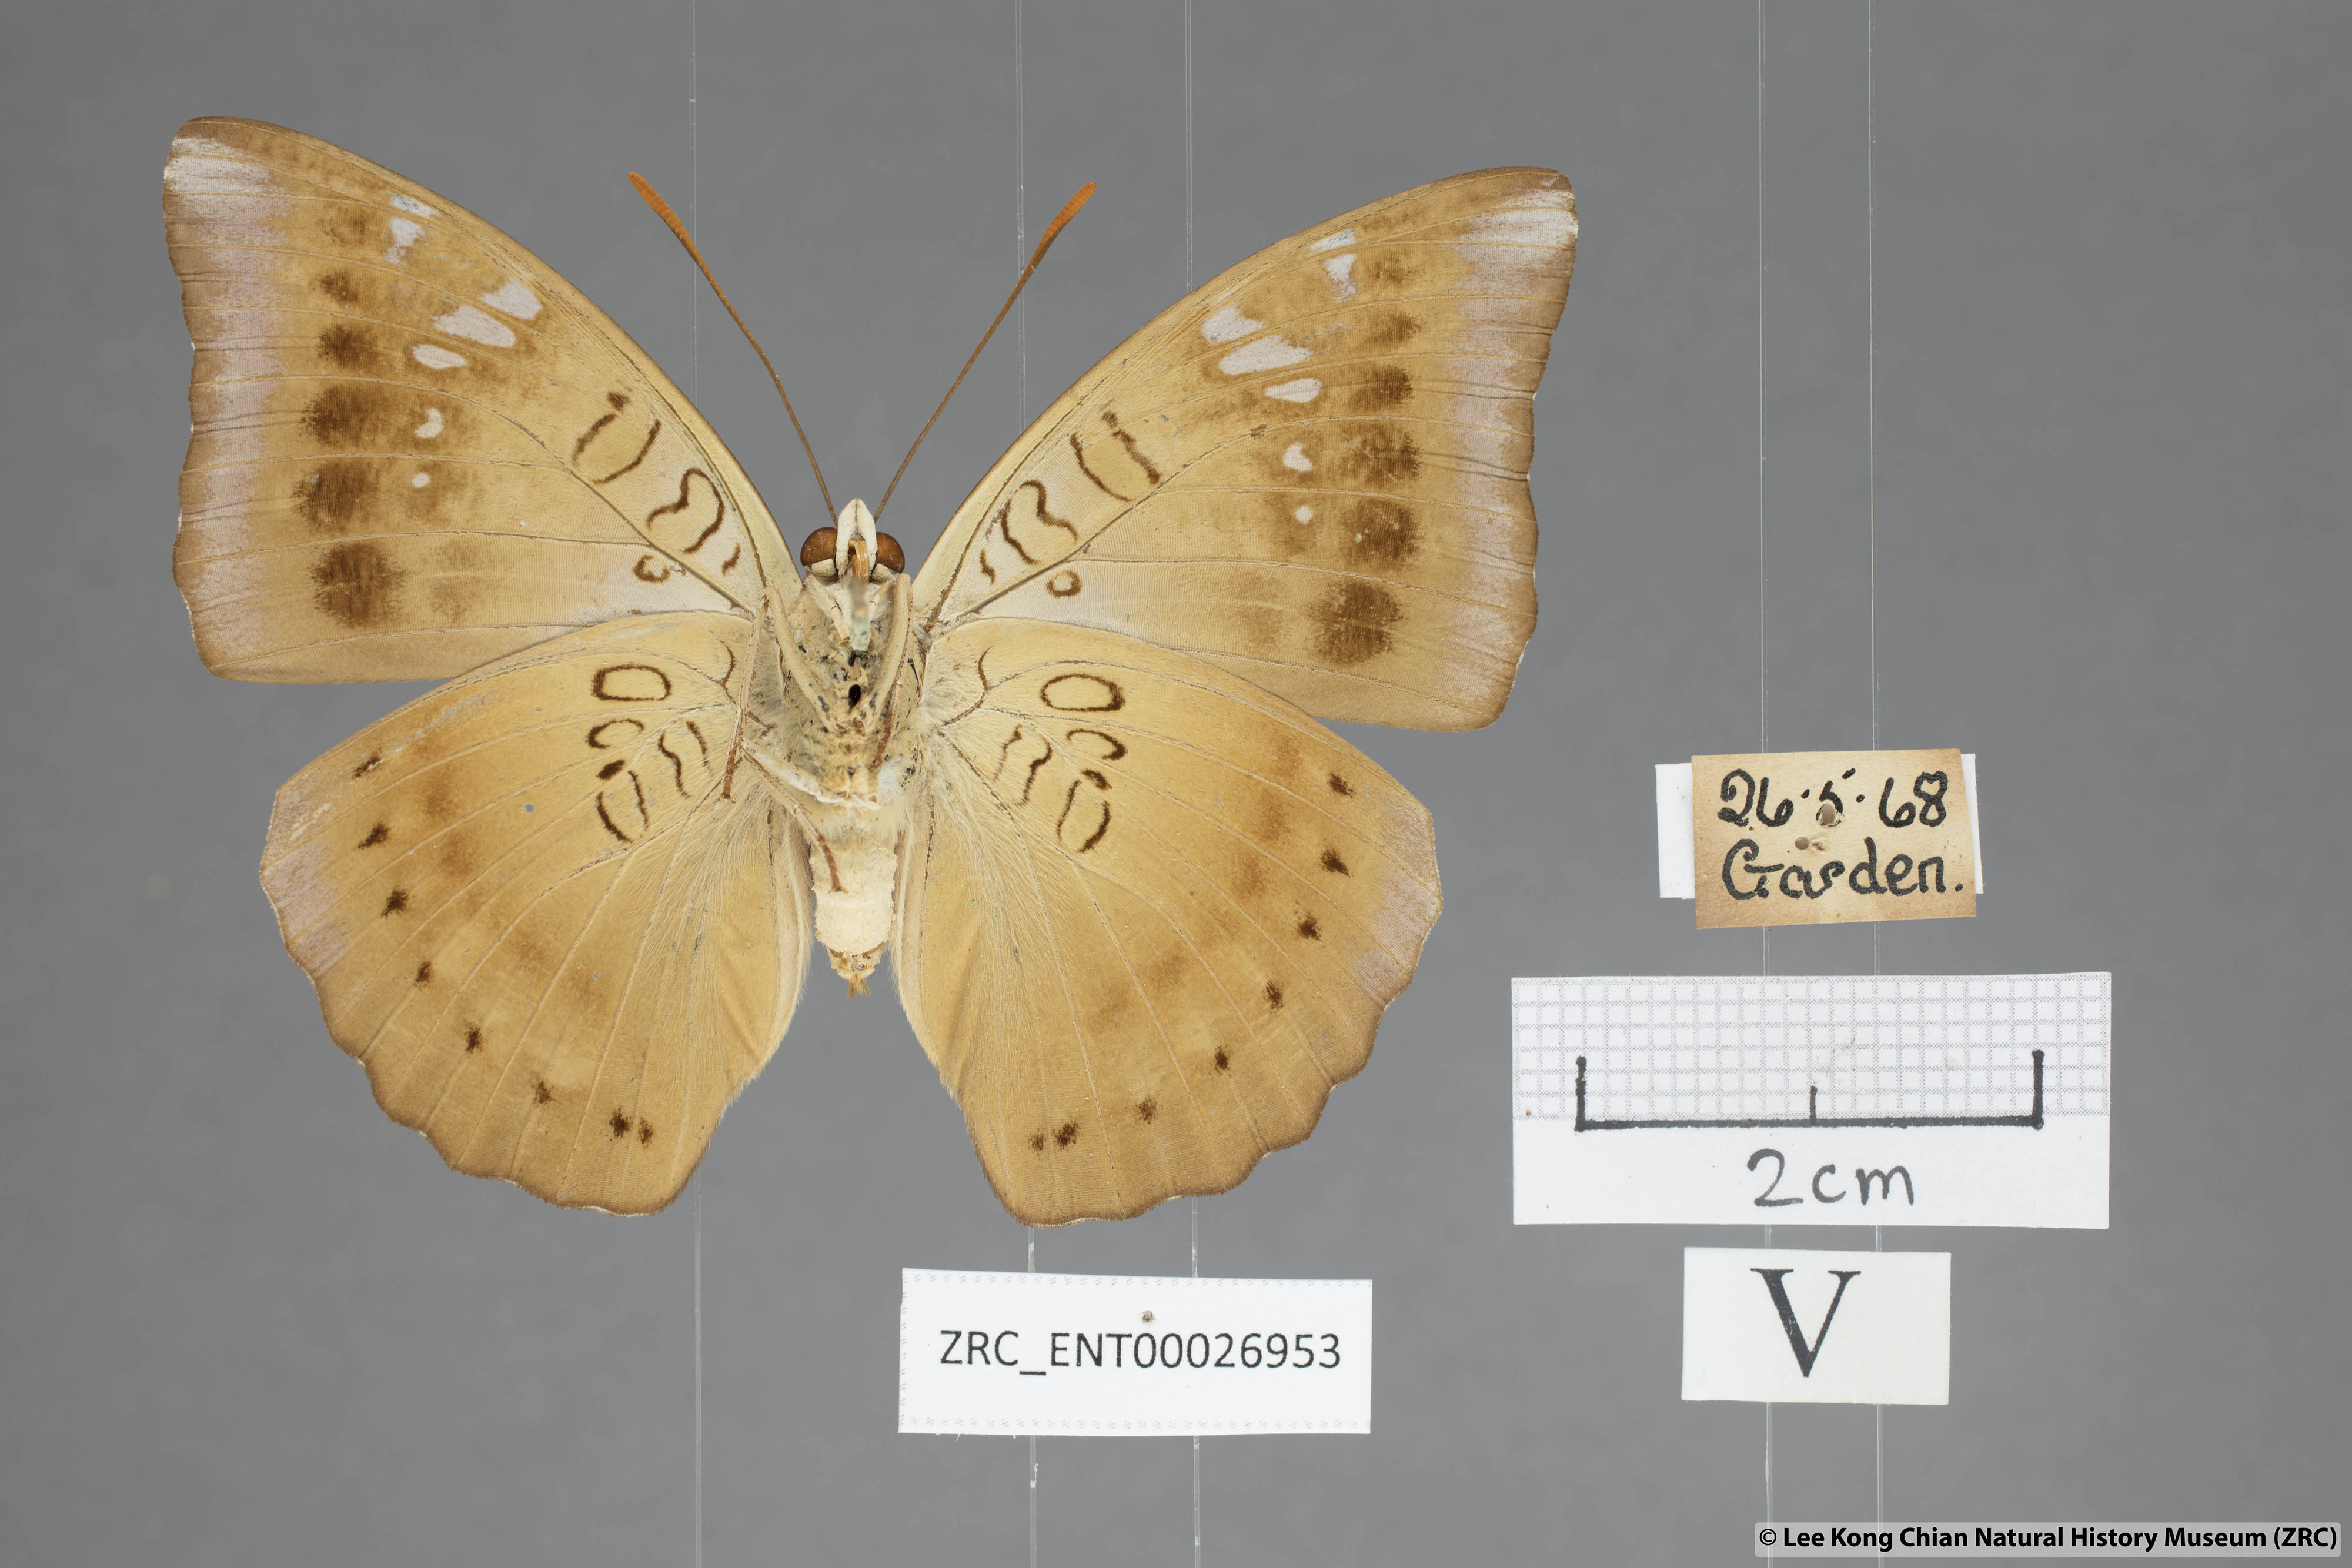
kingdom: Animalia
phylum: Arthropoda
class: Insecta
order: Lepidoptera
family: Nymphalidae
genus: Euthalia
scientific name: Euthalia aconthea
